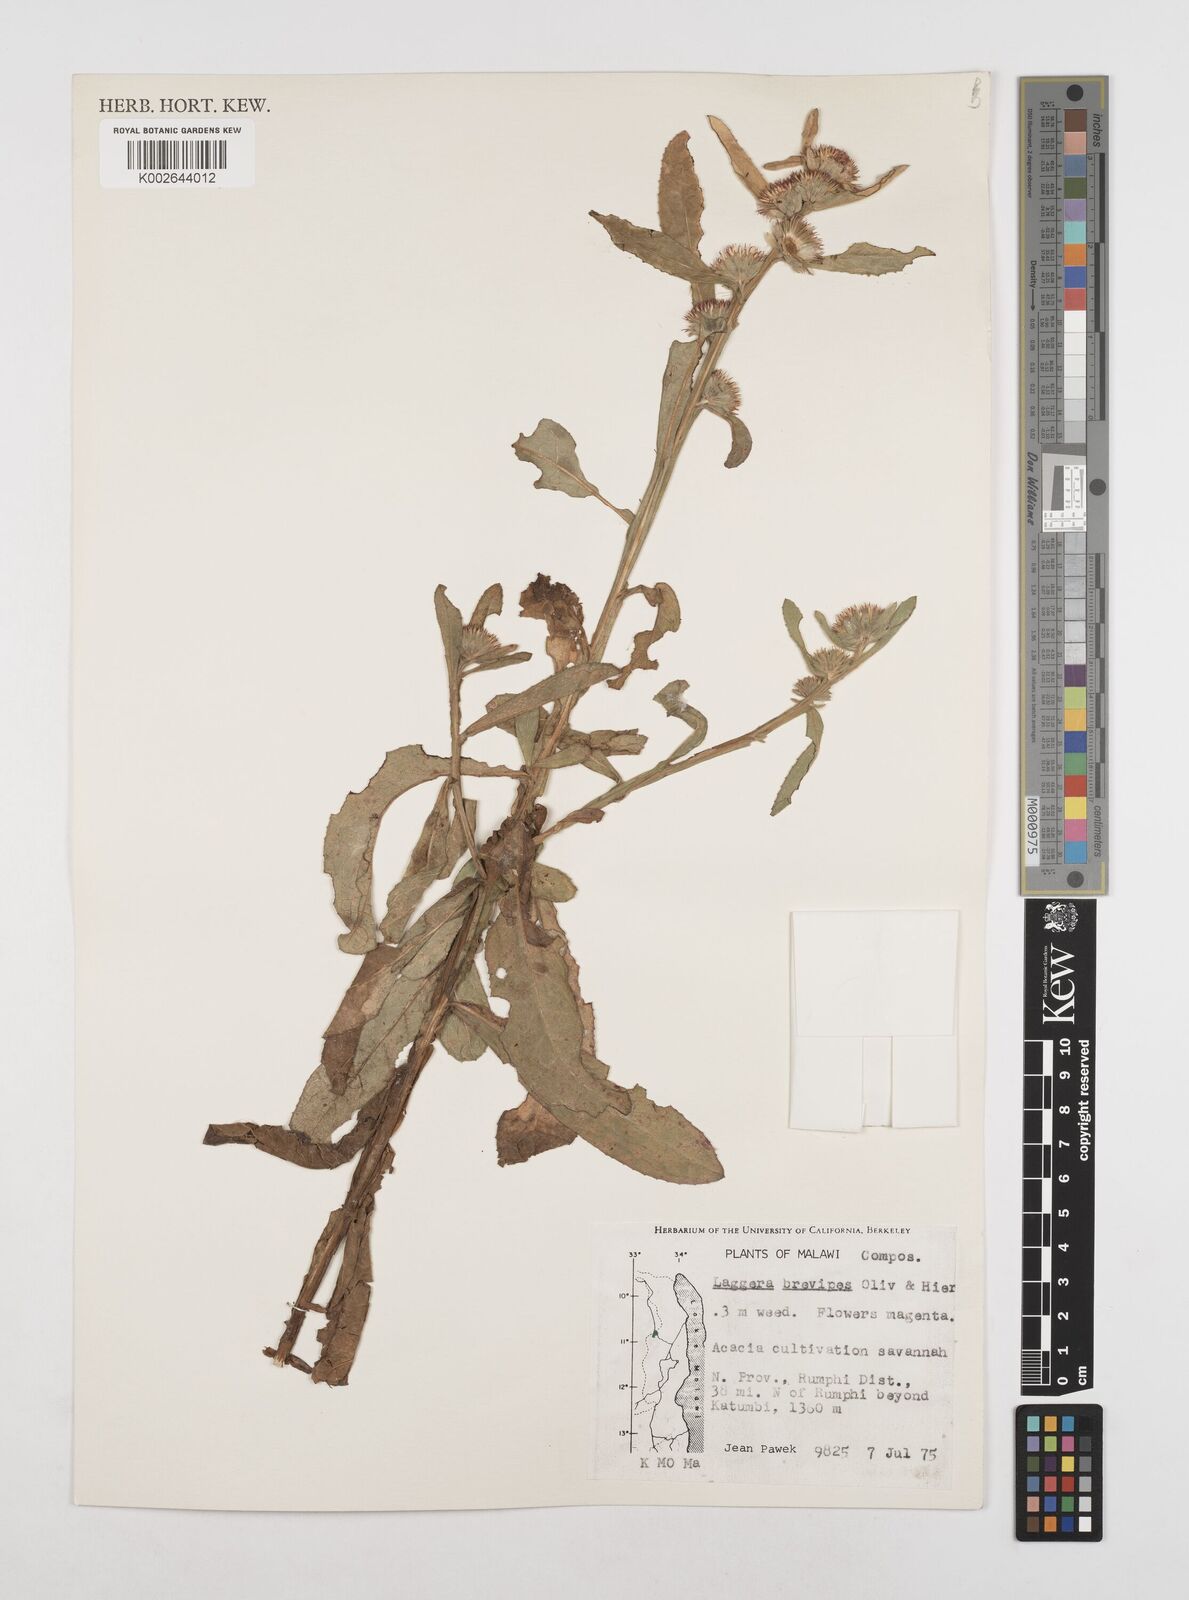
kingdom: Plantae
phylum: Tracheophyta
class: Magnoliopsida
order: Asterales
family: Asteraceae
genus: Laggera
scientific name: Laggera brevipes
